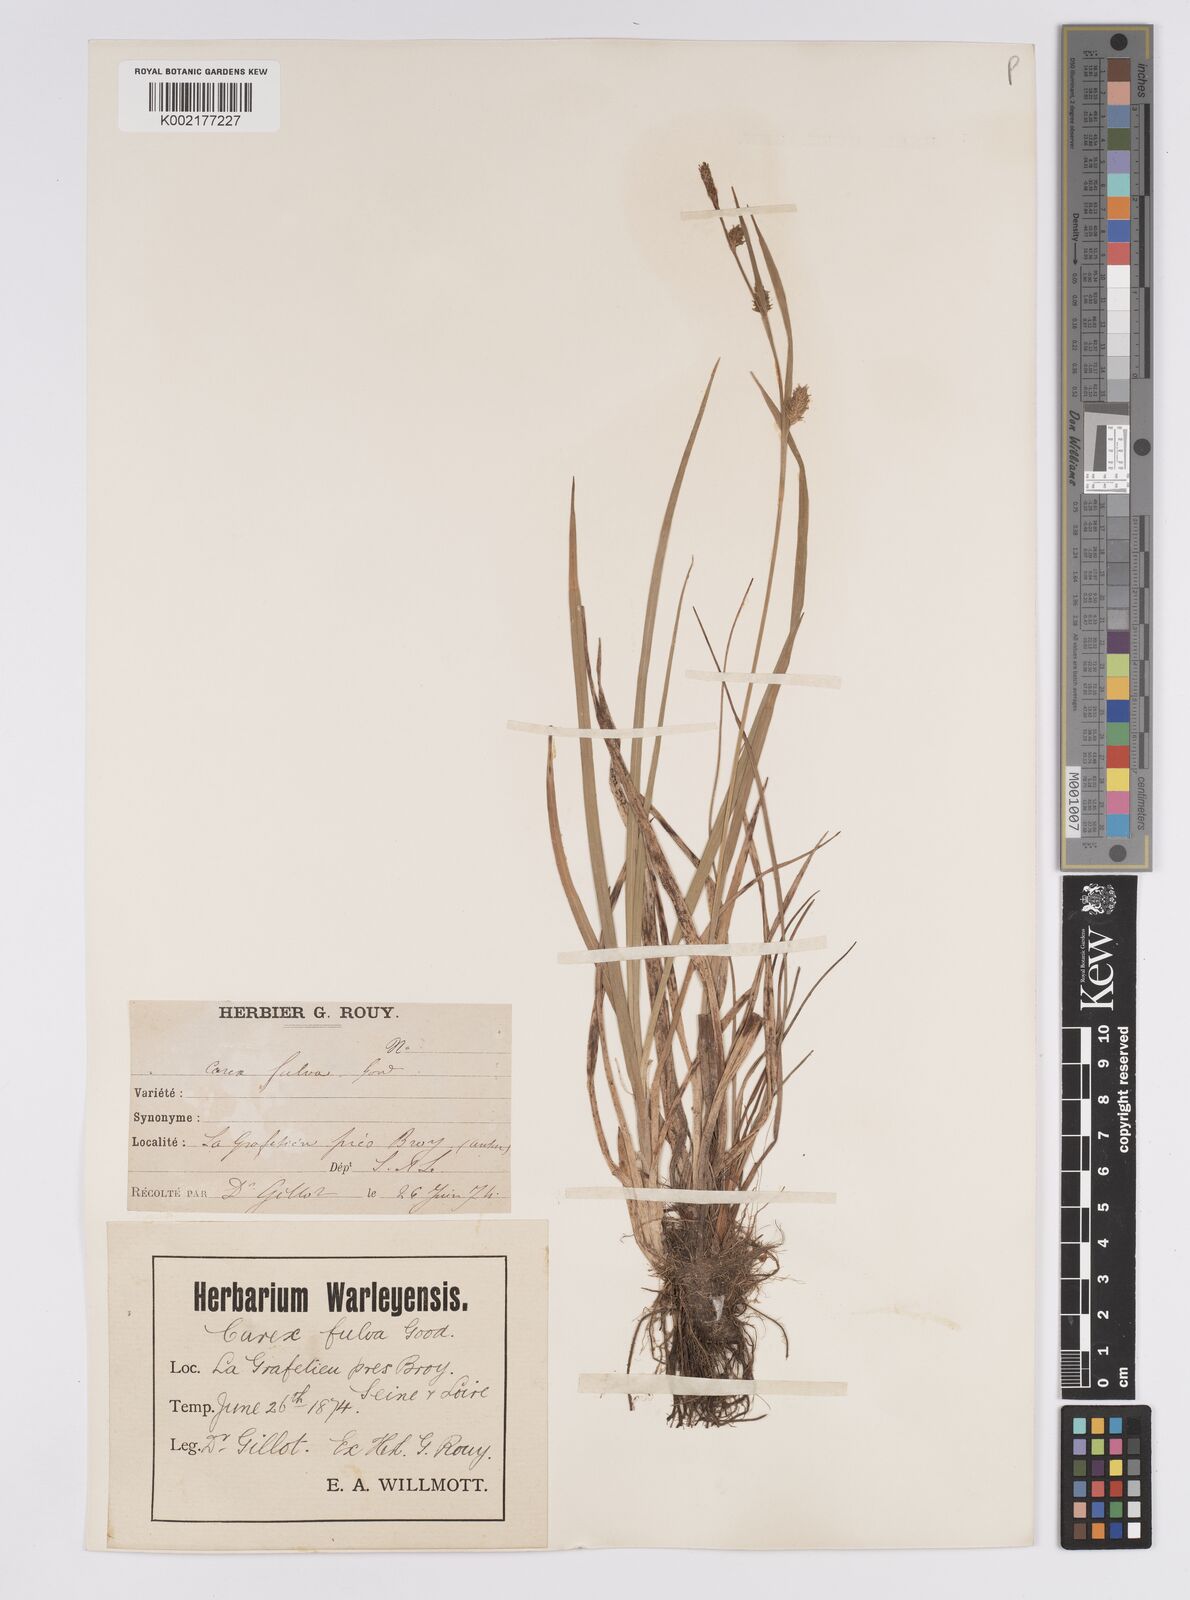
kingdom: Plantae
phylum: Tracheophyta
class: Liliopsida
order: Poales
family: Cyperaceae
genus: Carex
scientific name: Carex hostiana
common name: Tawny sedge
